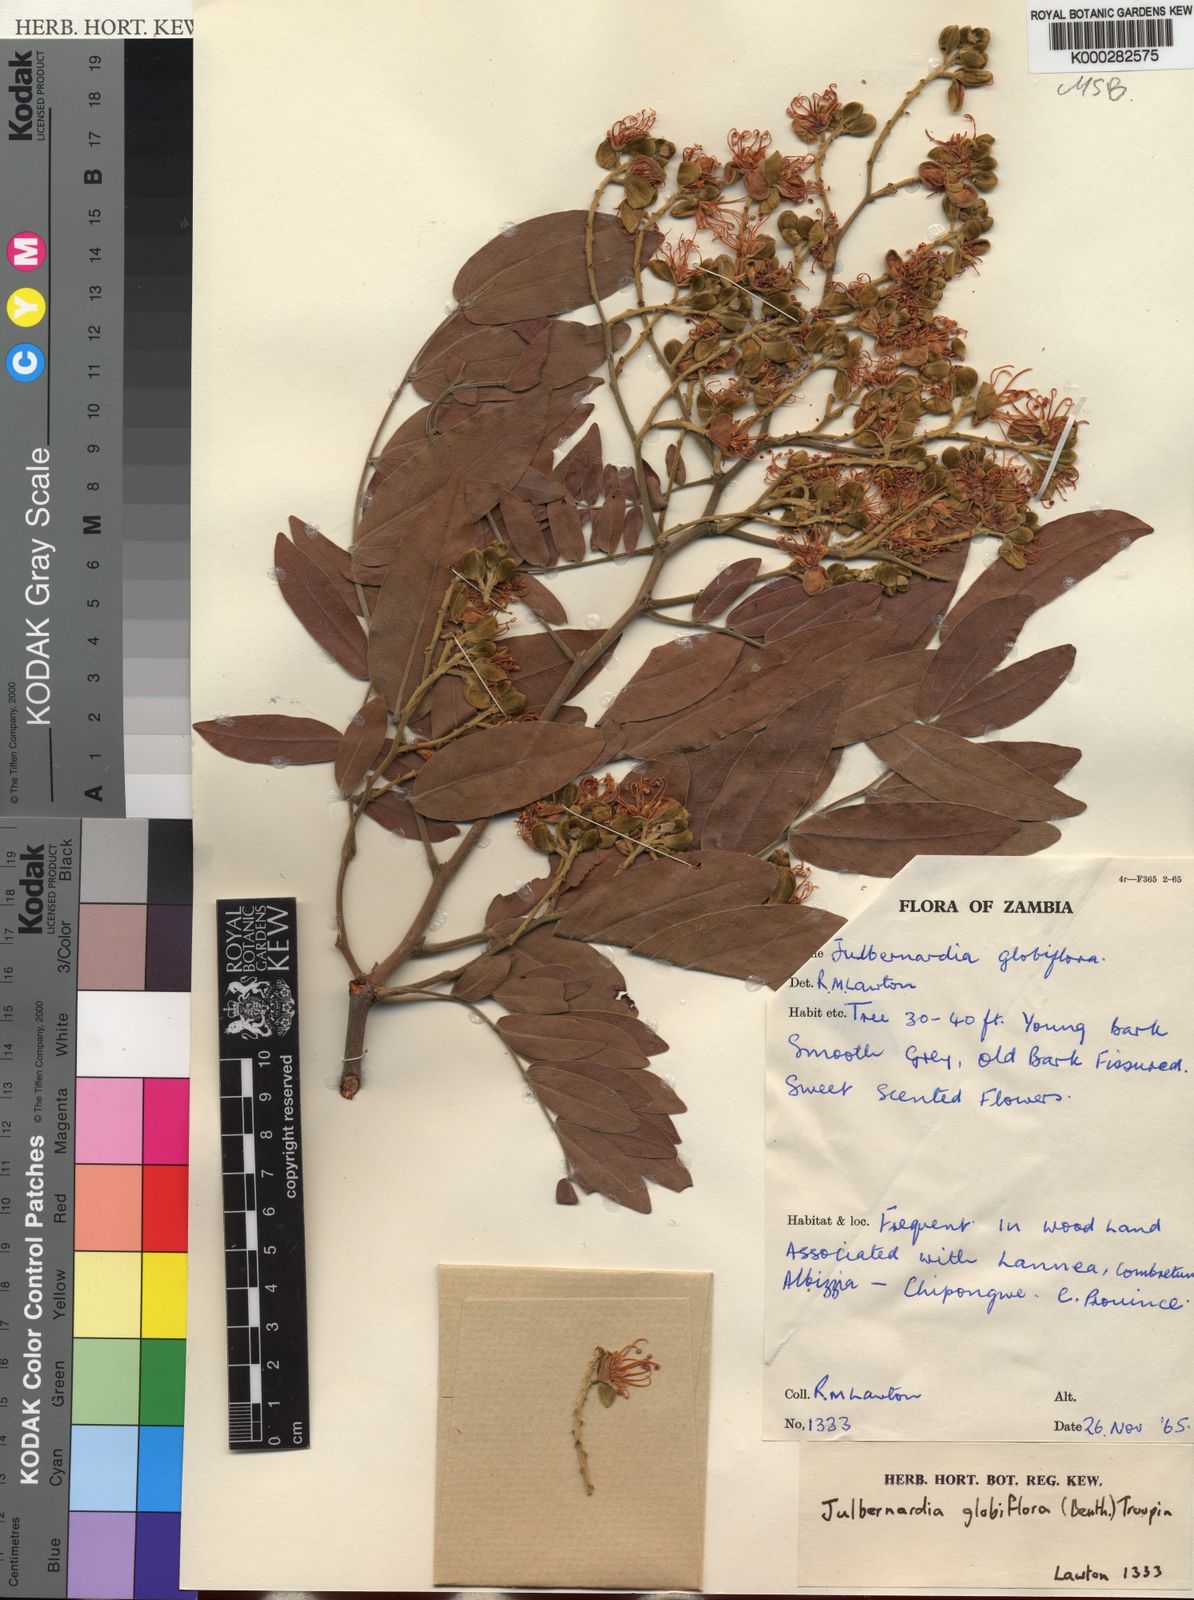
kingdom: Plantae
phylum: Tracheophyta
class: Magnoliopsida
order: Fabales
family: Fabaceae
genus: Julbernardia
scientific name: Julbernardia globiflora
